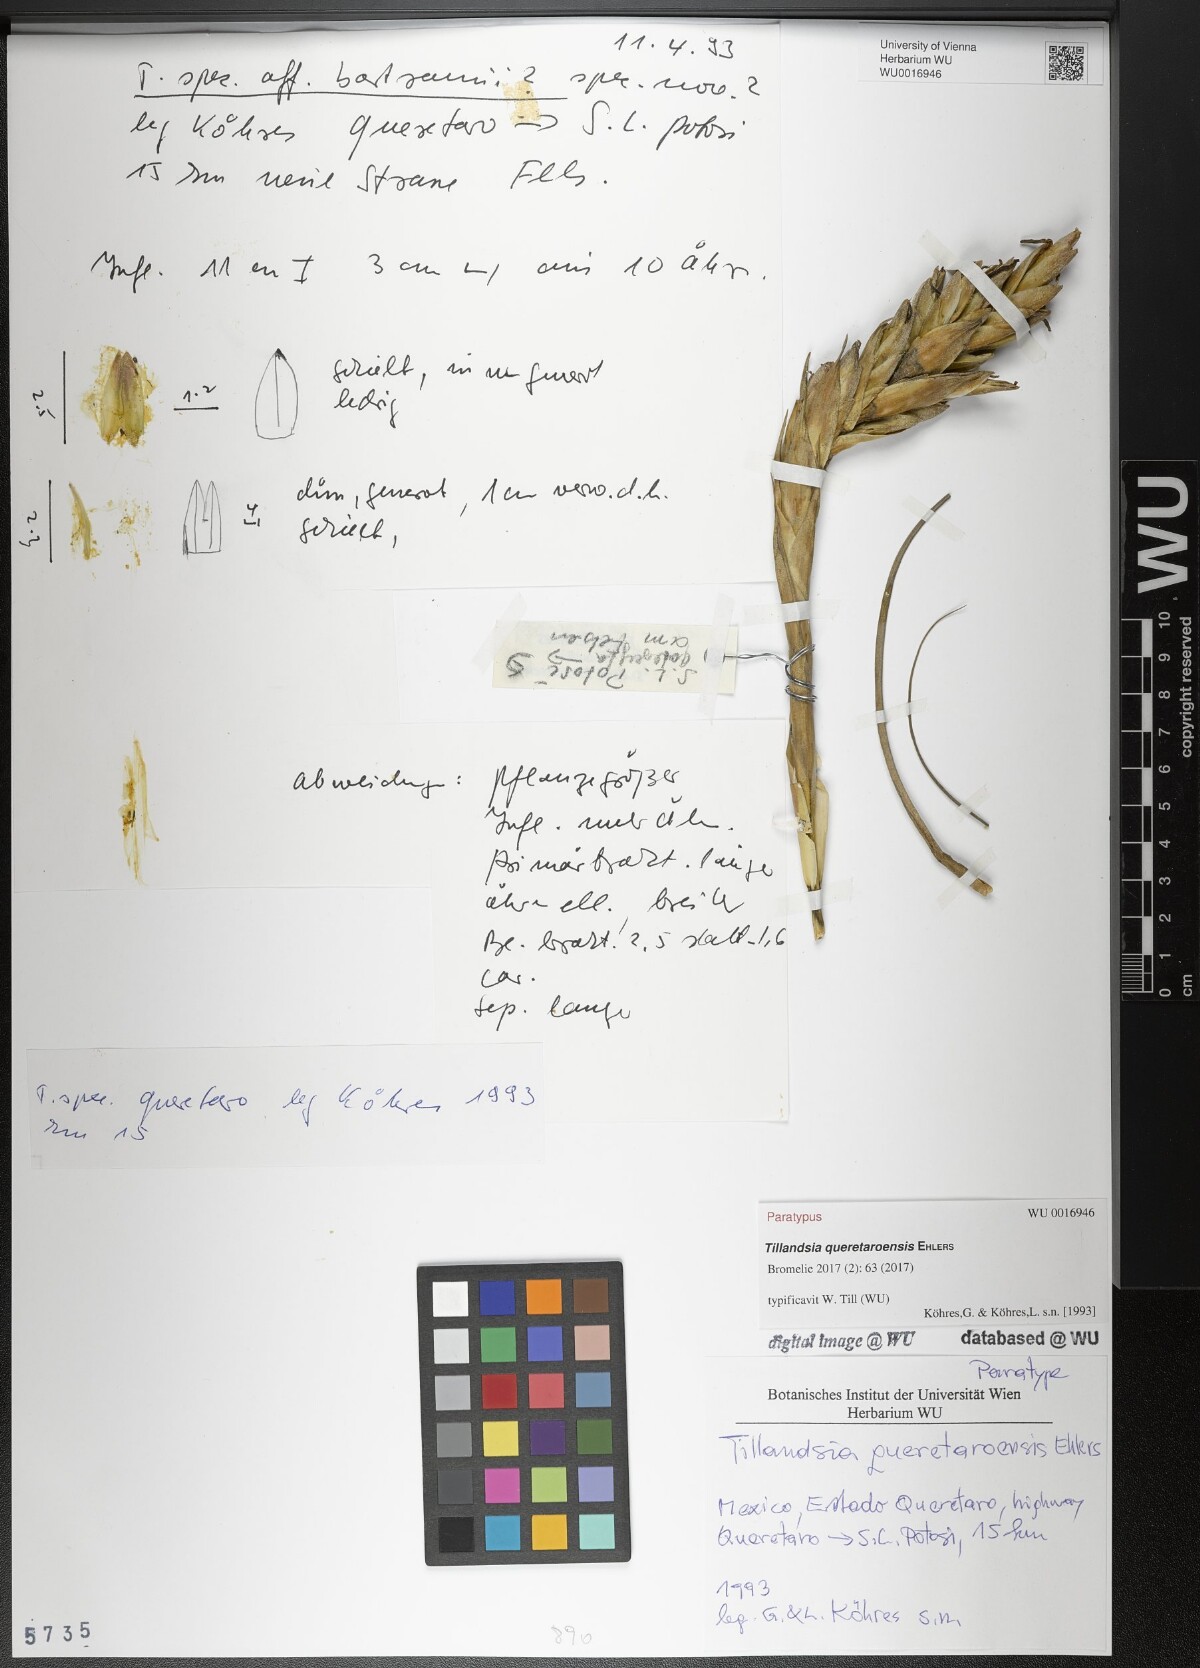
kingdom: Plantae
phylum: Tracheophyta
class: Liliopsida
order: Poales
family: Bromeliaceae
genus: Tillandsia
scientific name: Tillandsia queretaroensis
